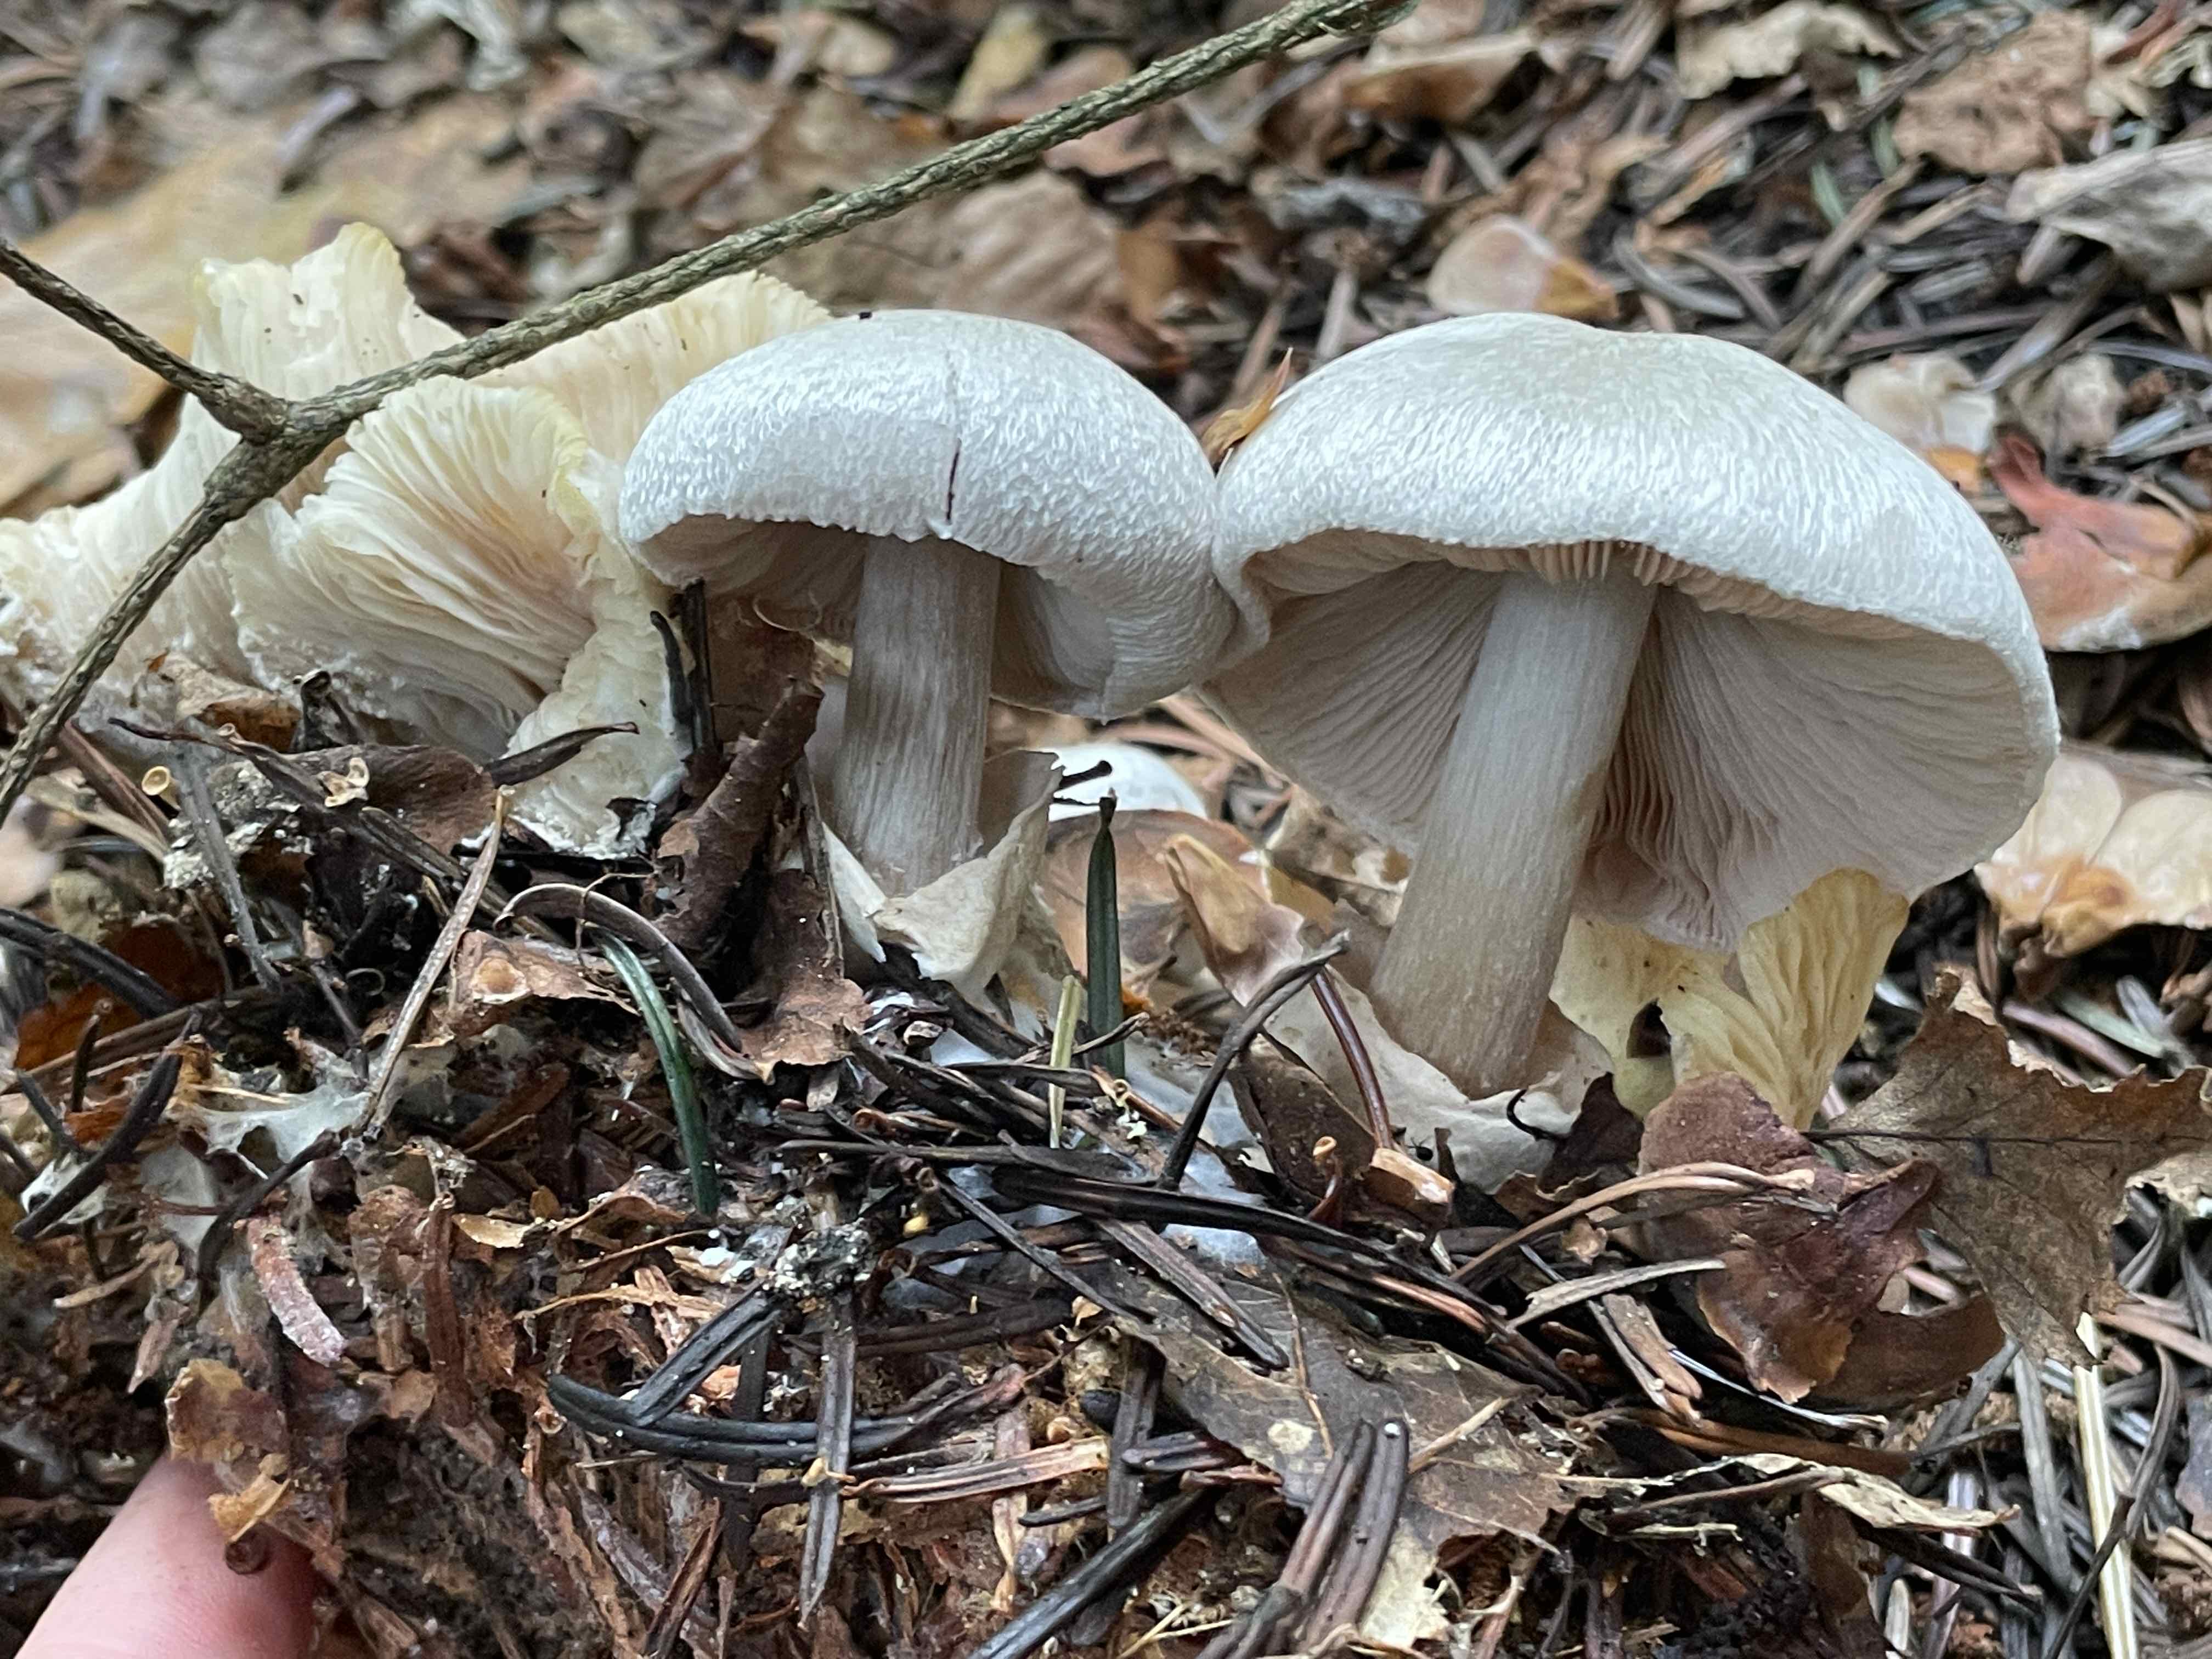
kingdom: Fungi
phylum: Basidiomycota
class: Agaricomycetes
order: Agaricales
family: Pluteaceae
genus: Volvariella
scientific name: Volvariella surrecta
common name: snyltende posesvamp
